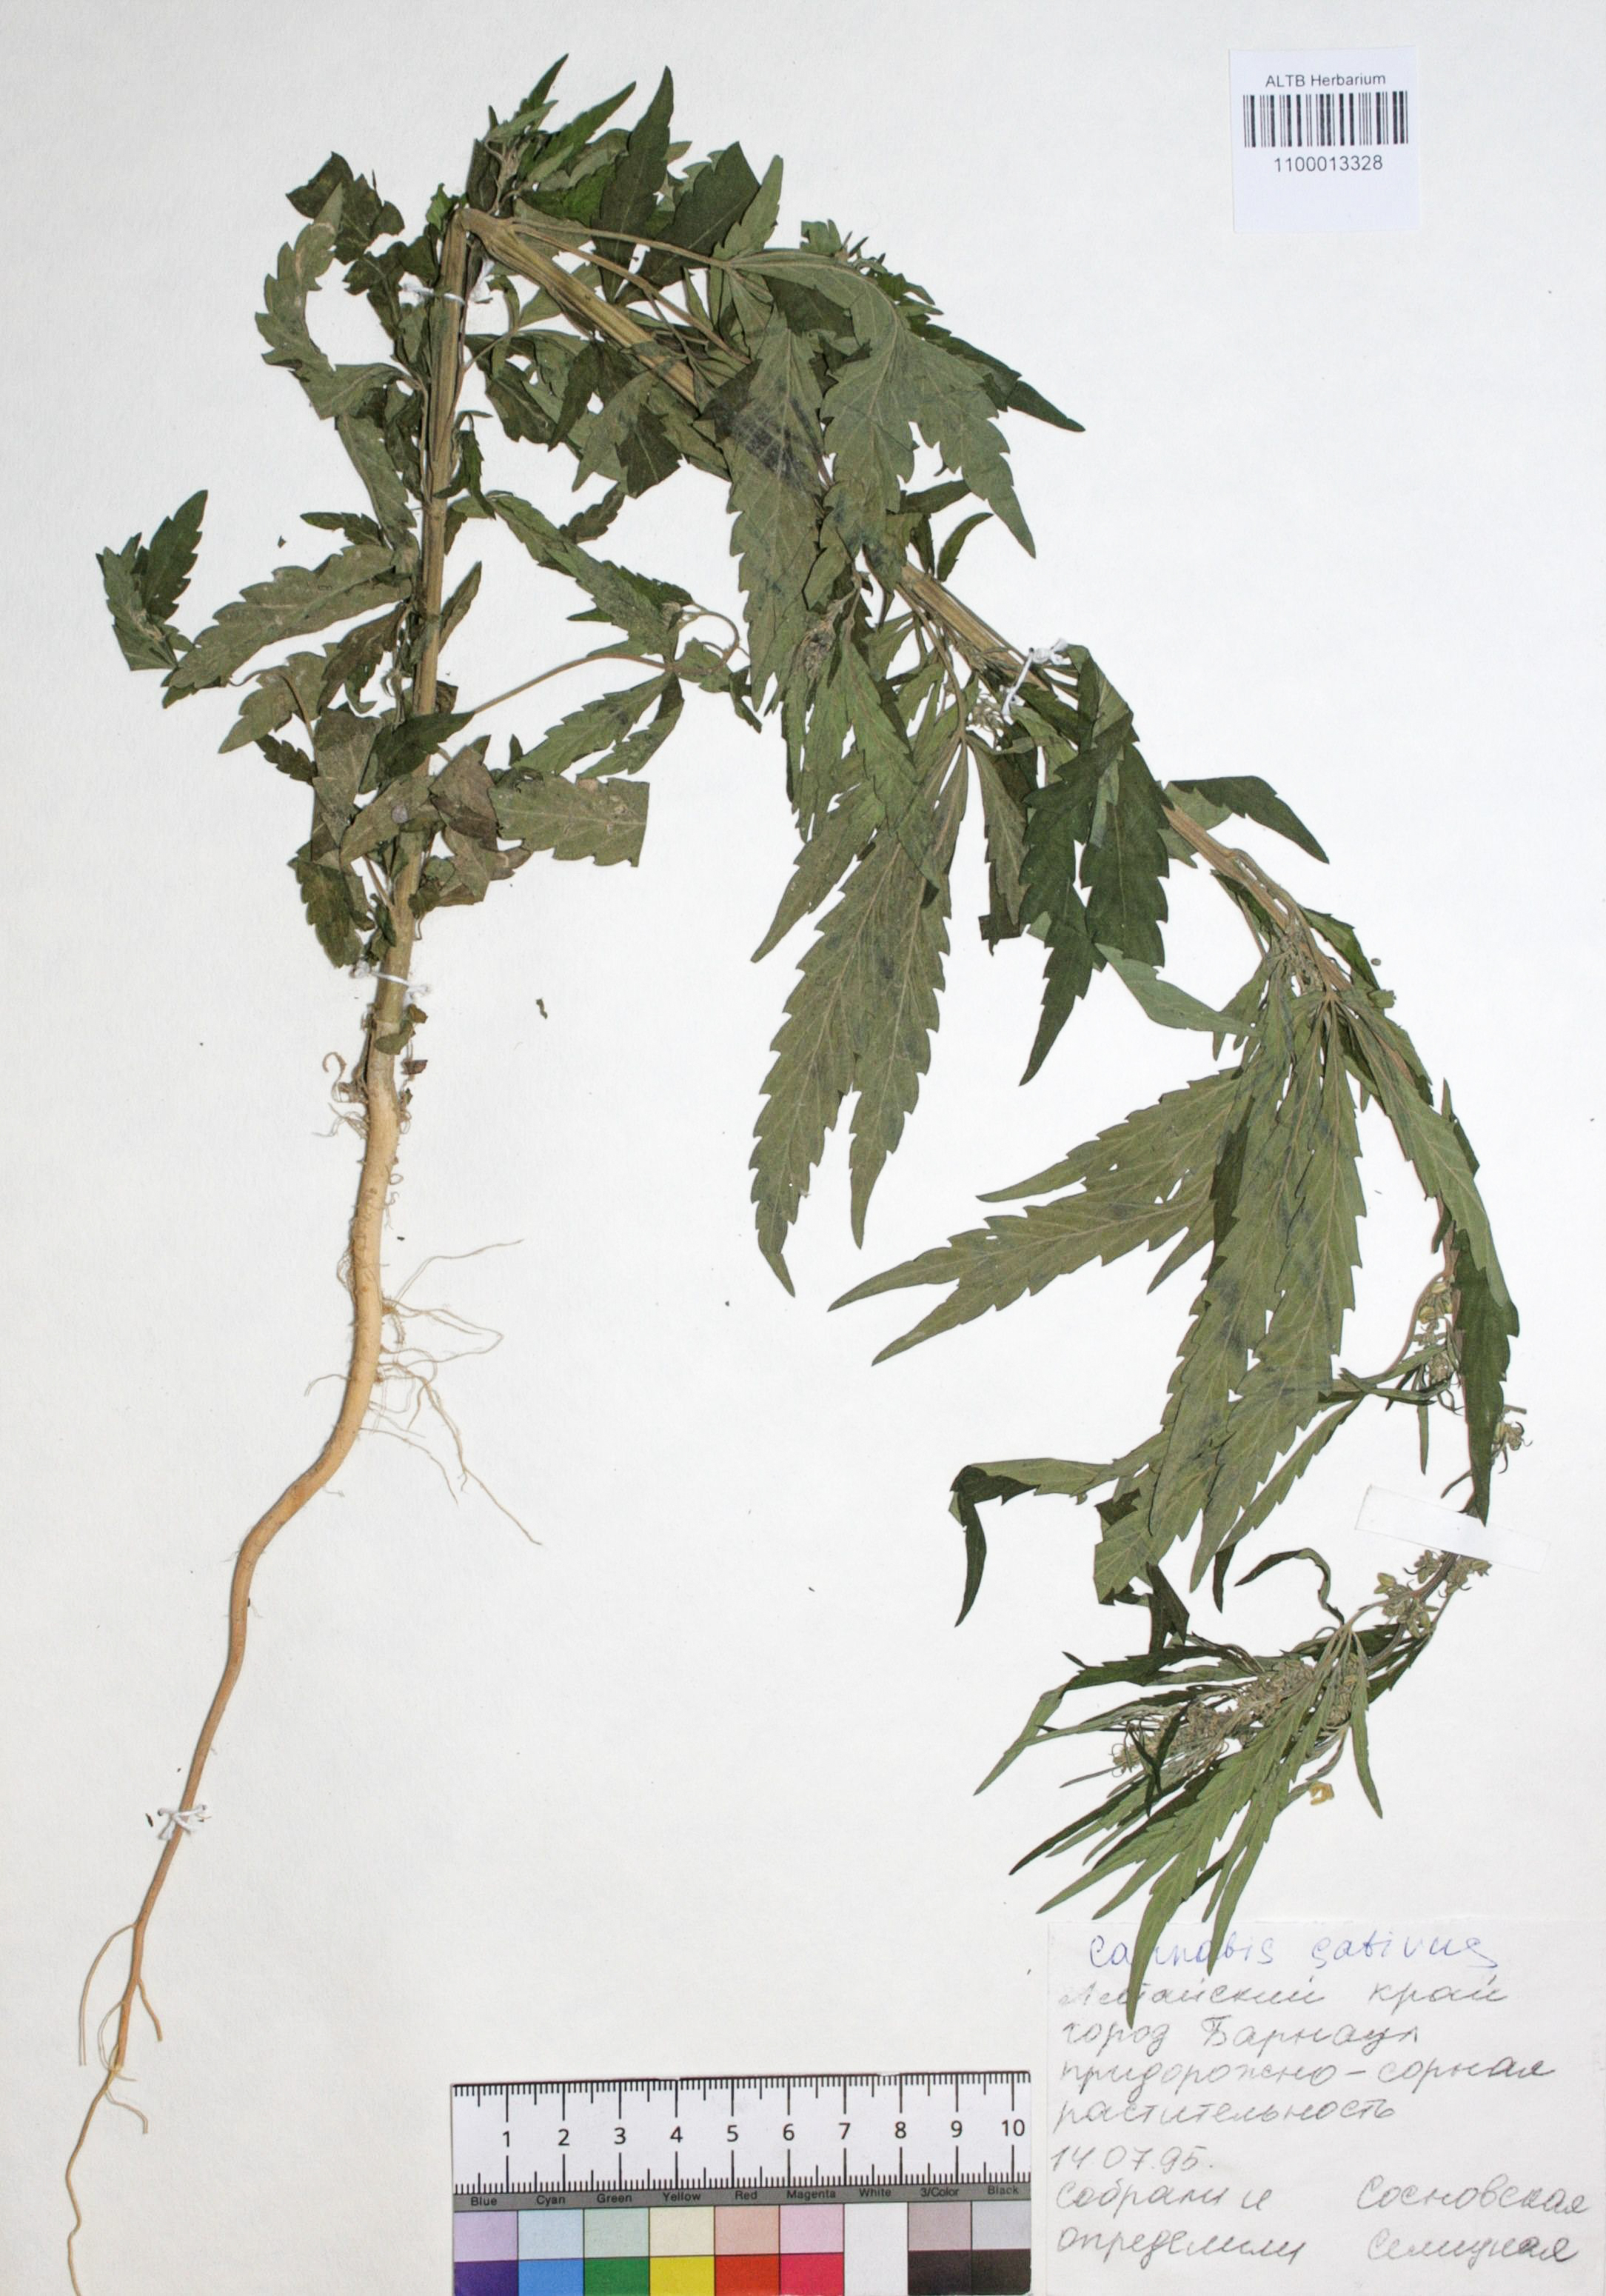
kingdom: Plantae
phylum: Tracheophyta
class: Magnoliopsida
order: Rosales
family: Cannabaceae
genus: Cannabis
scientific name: Cannabis sativa
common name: Hemp
